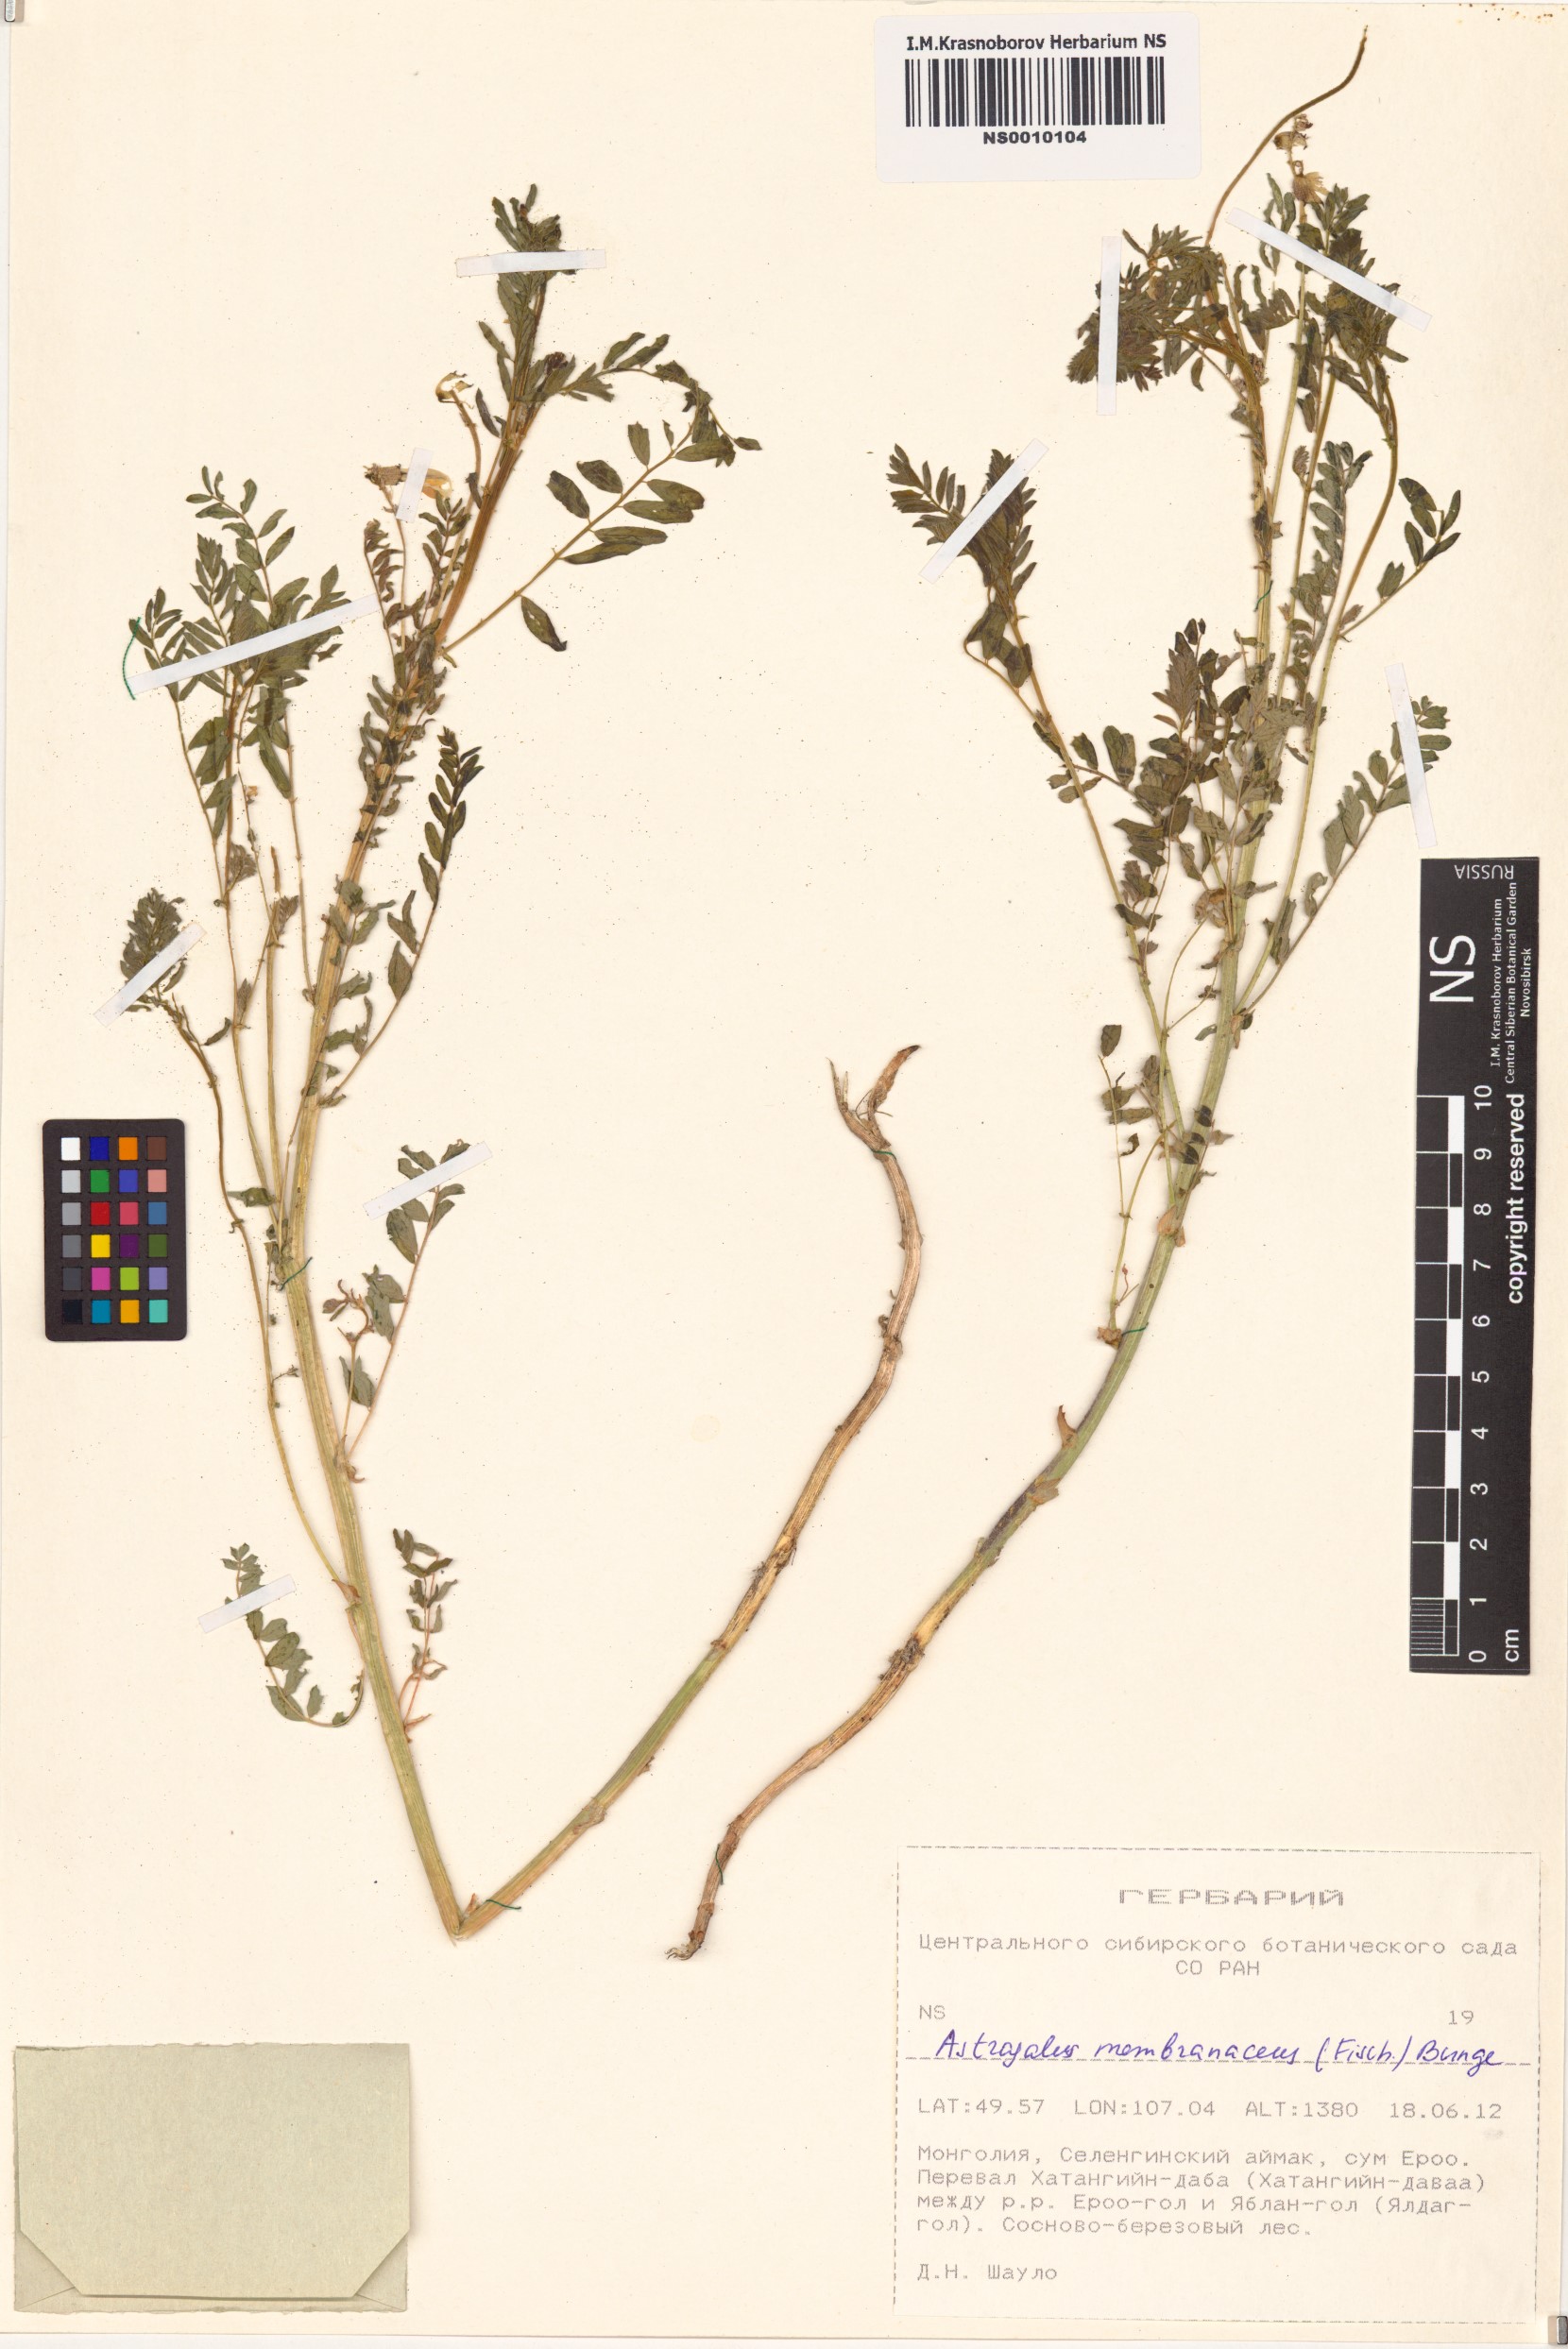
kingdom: Plantae
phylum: Tracheophyta
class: Magnoliopsida
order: Fabales
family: Fabaceae
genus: Astragalus
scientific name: Astragalus mongholicus
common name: Membranous milk-vetch
